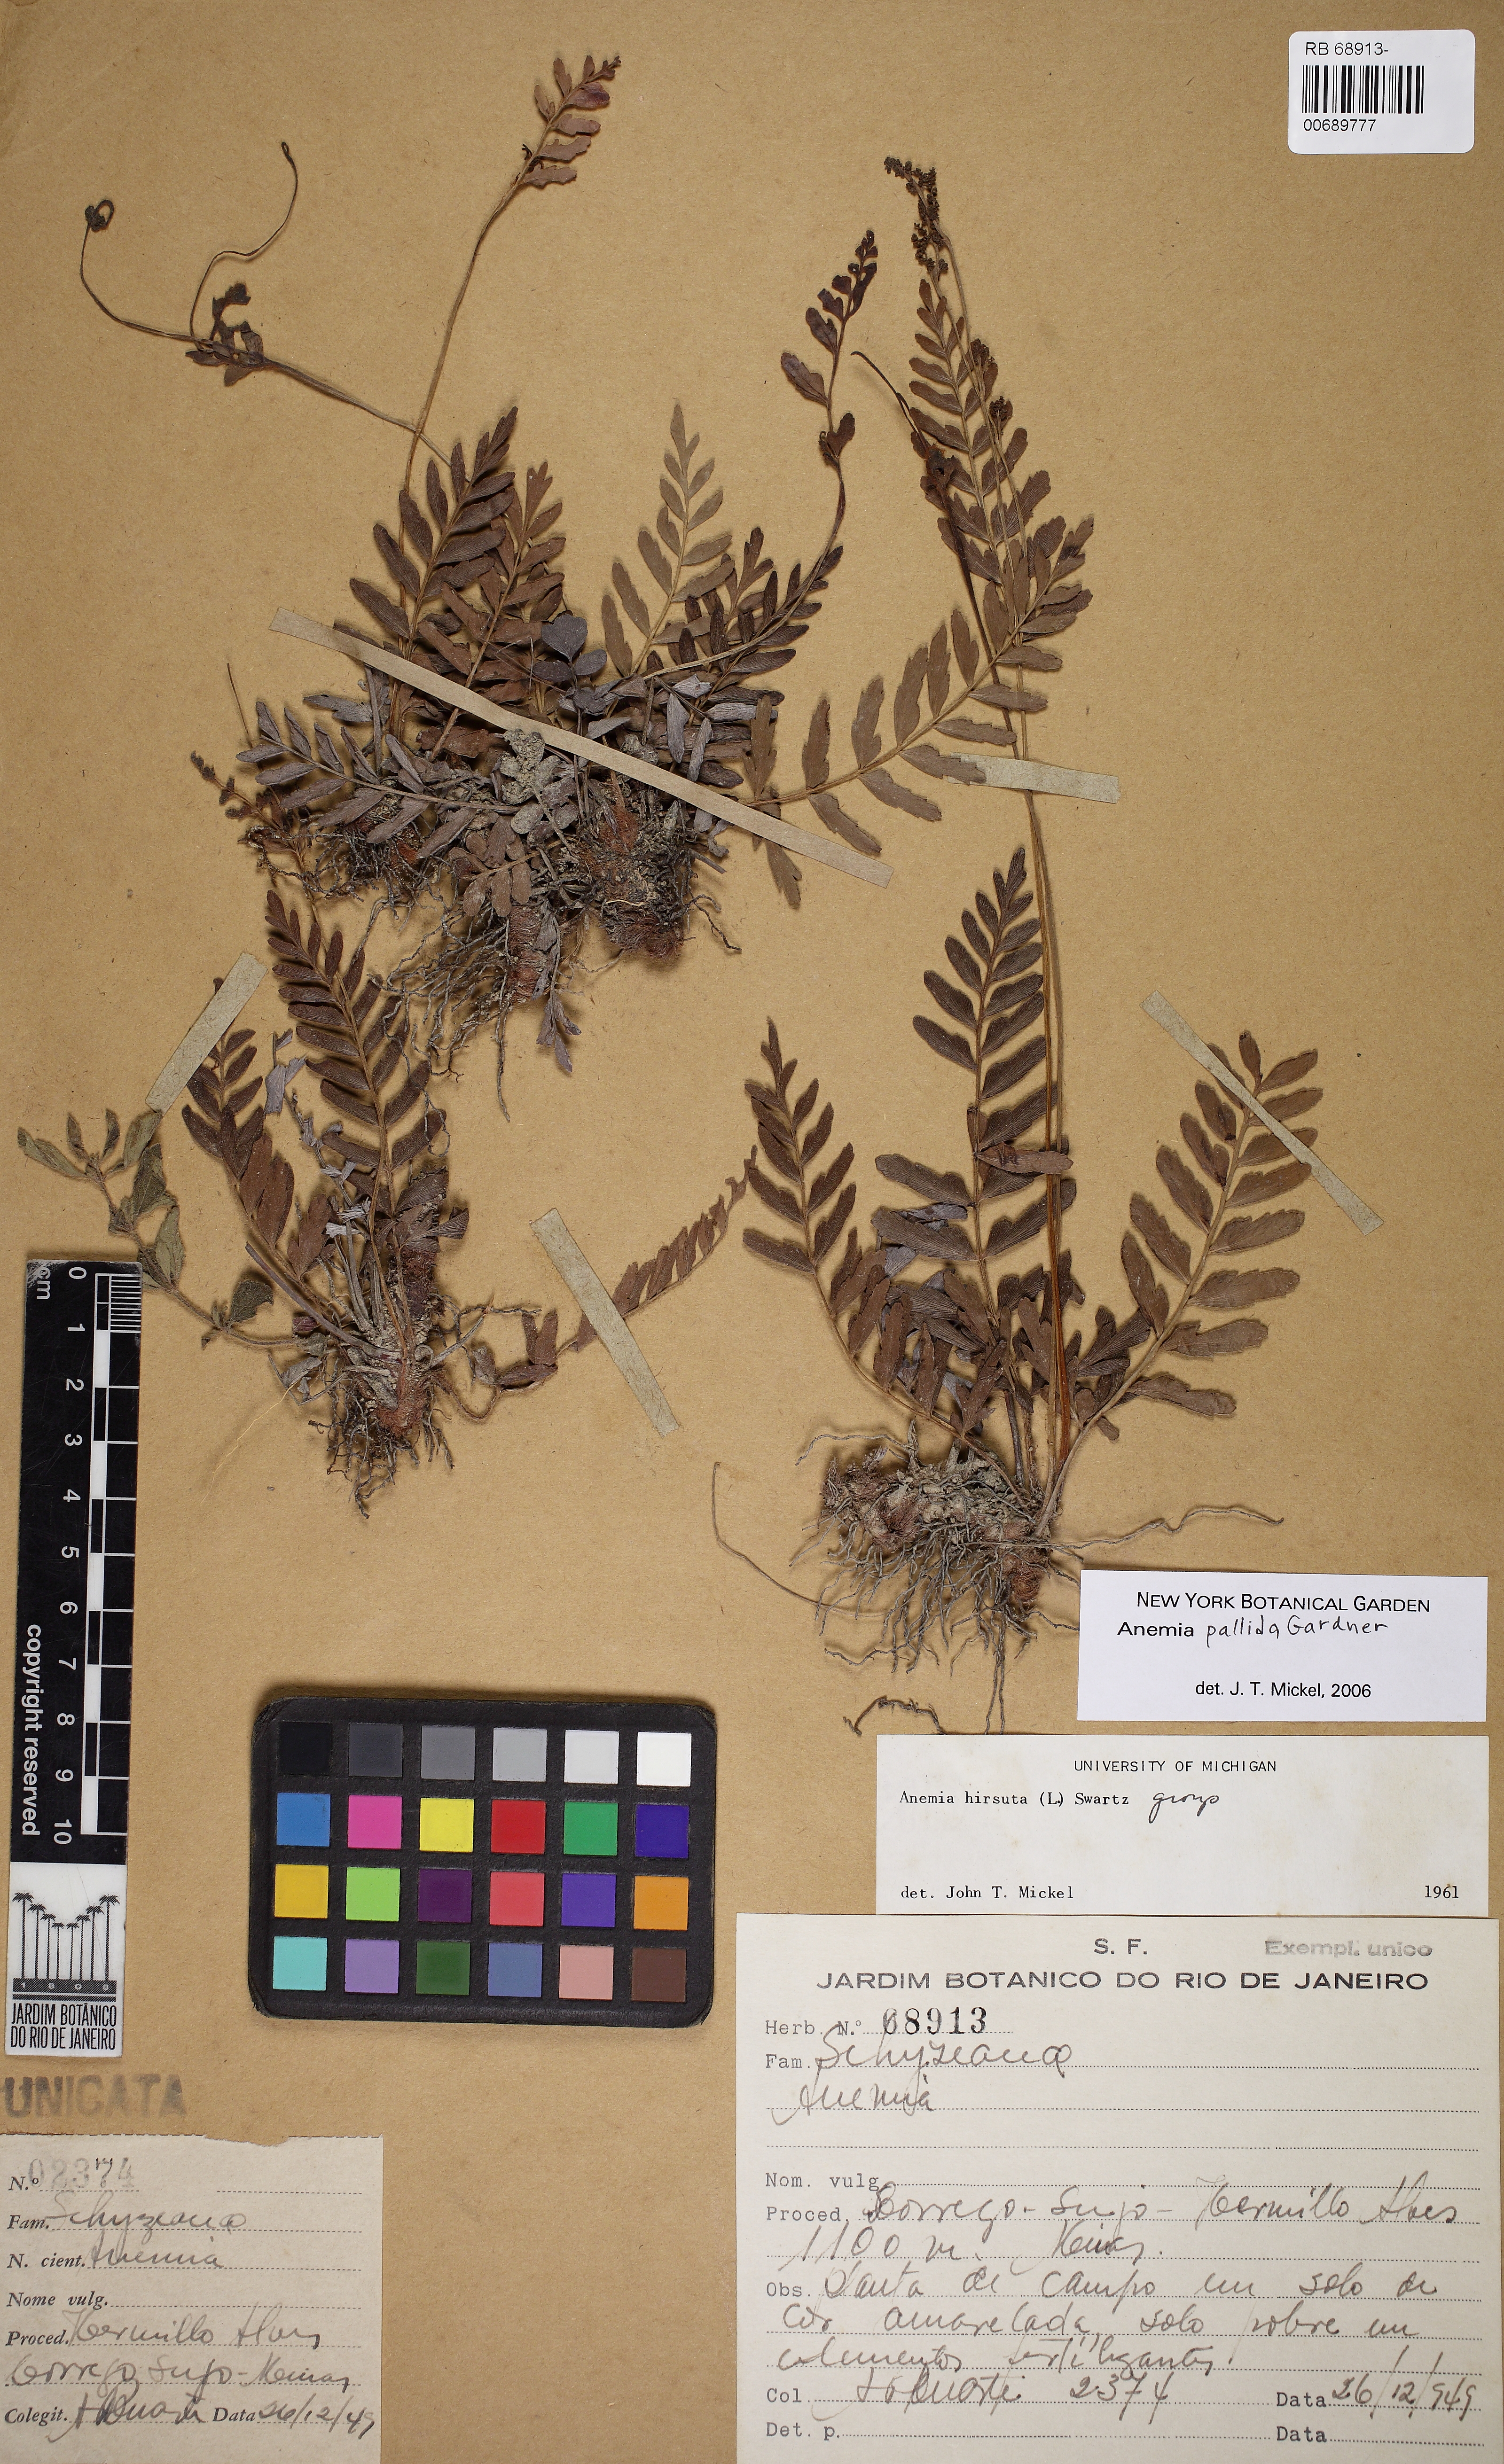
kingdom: Plantae
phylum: Tracheophyta
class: Polypodiopsida
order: Schizaeales
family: Anemiaceae
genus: Anemia
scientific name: Anemia hispida
